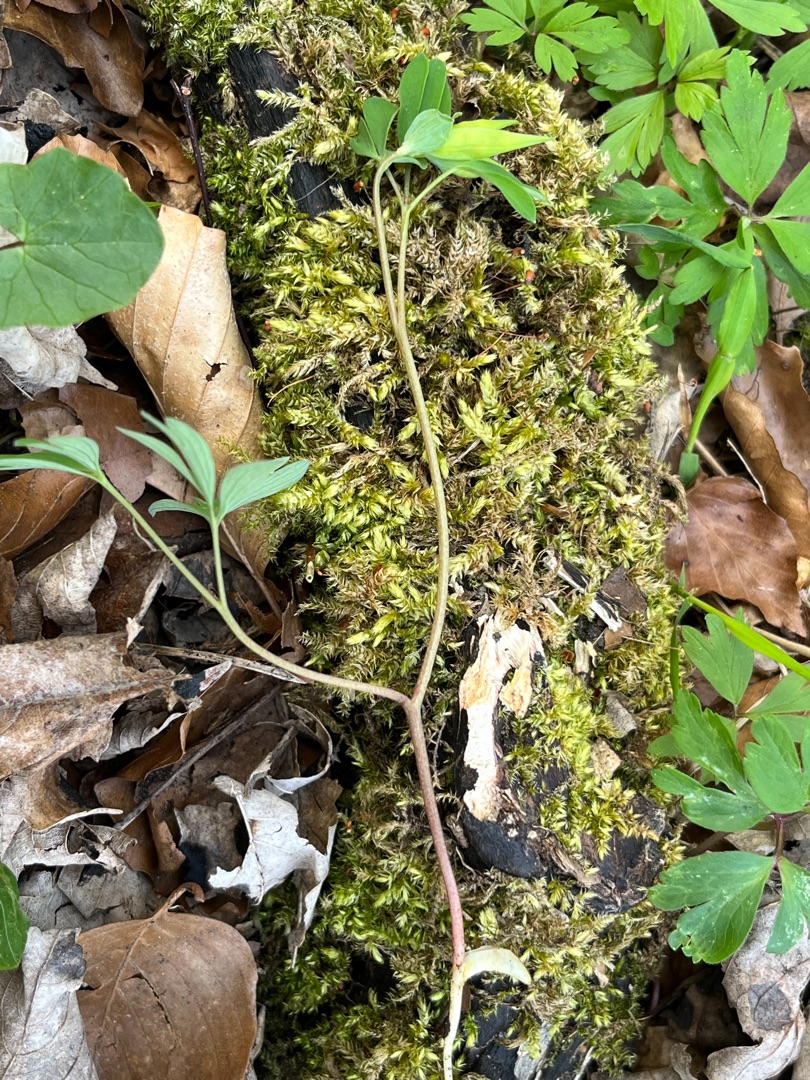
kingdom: Plantae
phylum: Tracheophyta
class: Magnoliopsida
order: Ranunculales
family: Papaveraceae
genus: Corydalis
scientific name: Corydalis intermedia
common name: Liden lærkespore
